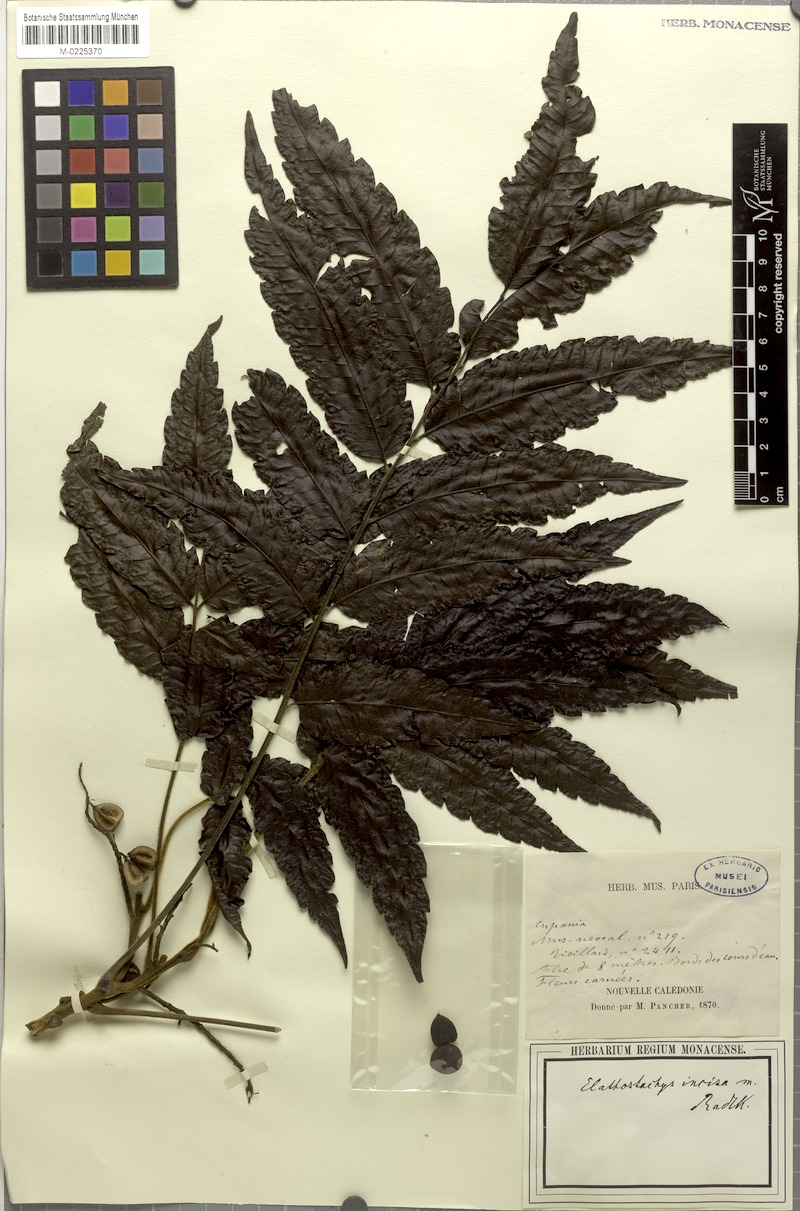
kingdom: Plantae
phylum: Tracheophyta
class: Magnoliopsida
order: Sapindales
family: Sapindaceae
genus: Elattostachys
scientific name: Elattostachys incisa
